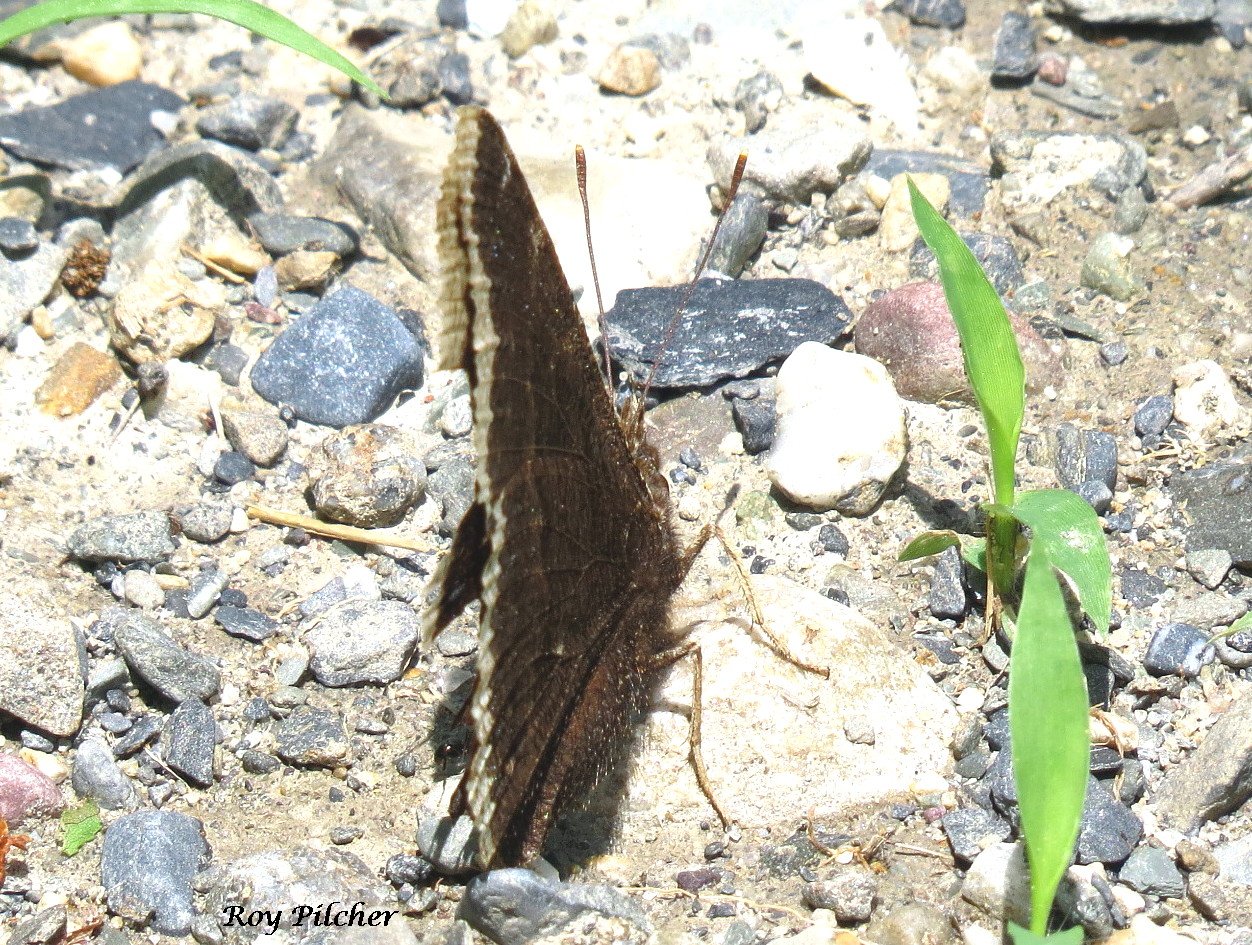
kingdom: Animalia
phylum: Arthropoda
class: Insecta
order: Lepidoptera
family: Nymphalidae
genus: Nymphalis
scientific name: Nymphalis antiopa
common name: Mourning Cloak
